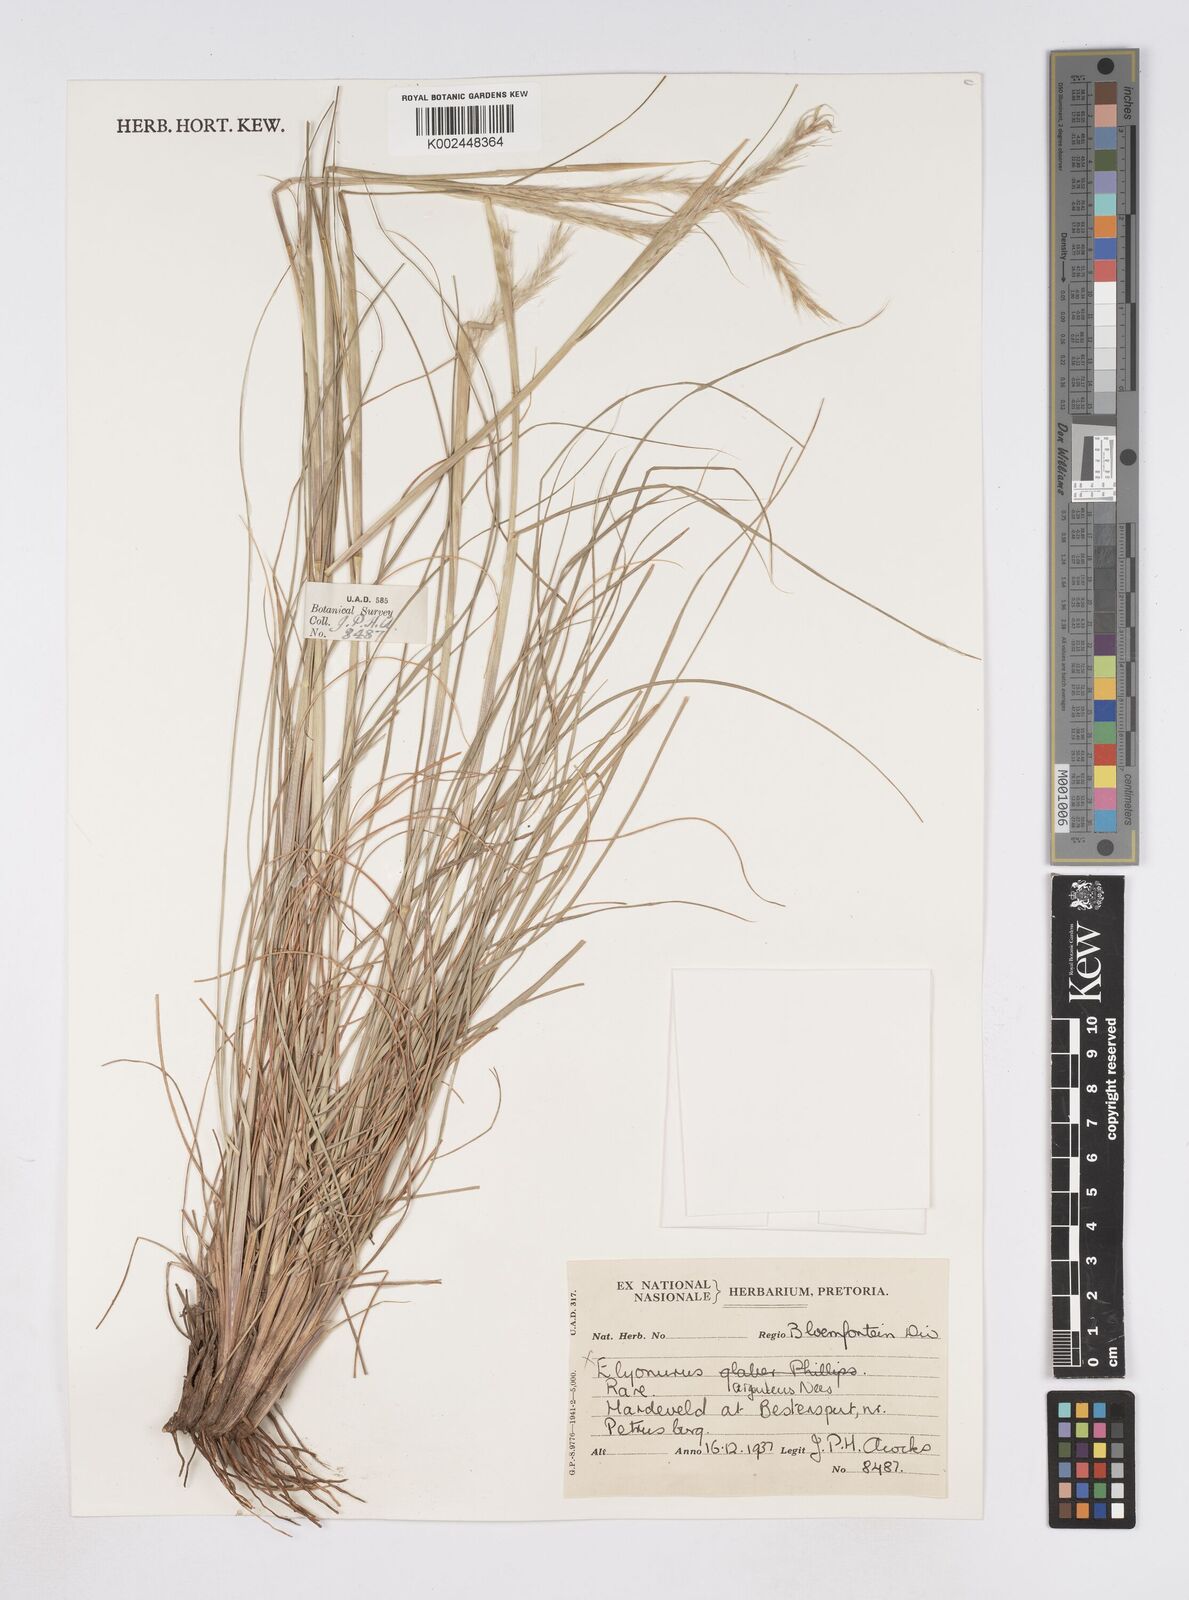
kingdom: Plantae
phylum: Tracheophyta
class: Liliopsida
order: Poales
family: Poaceae
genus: Elionurus
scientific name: Elionurus muticus
